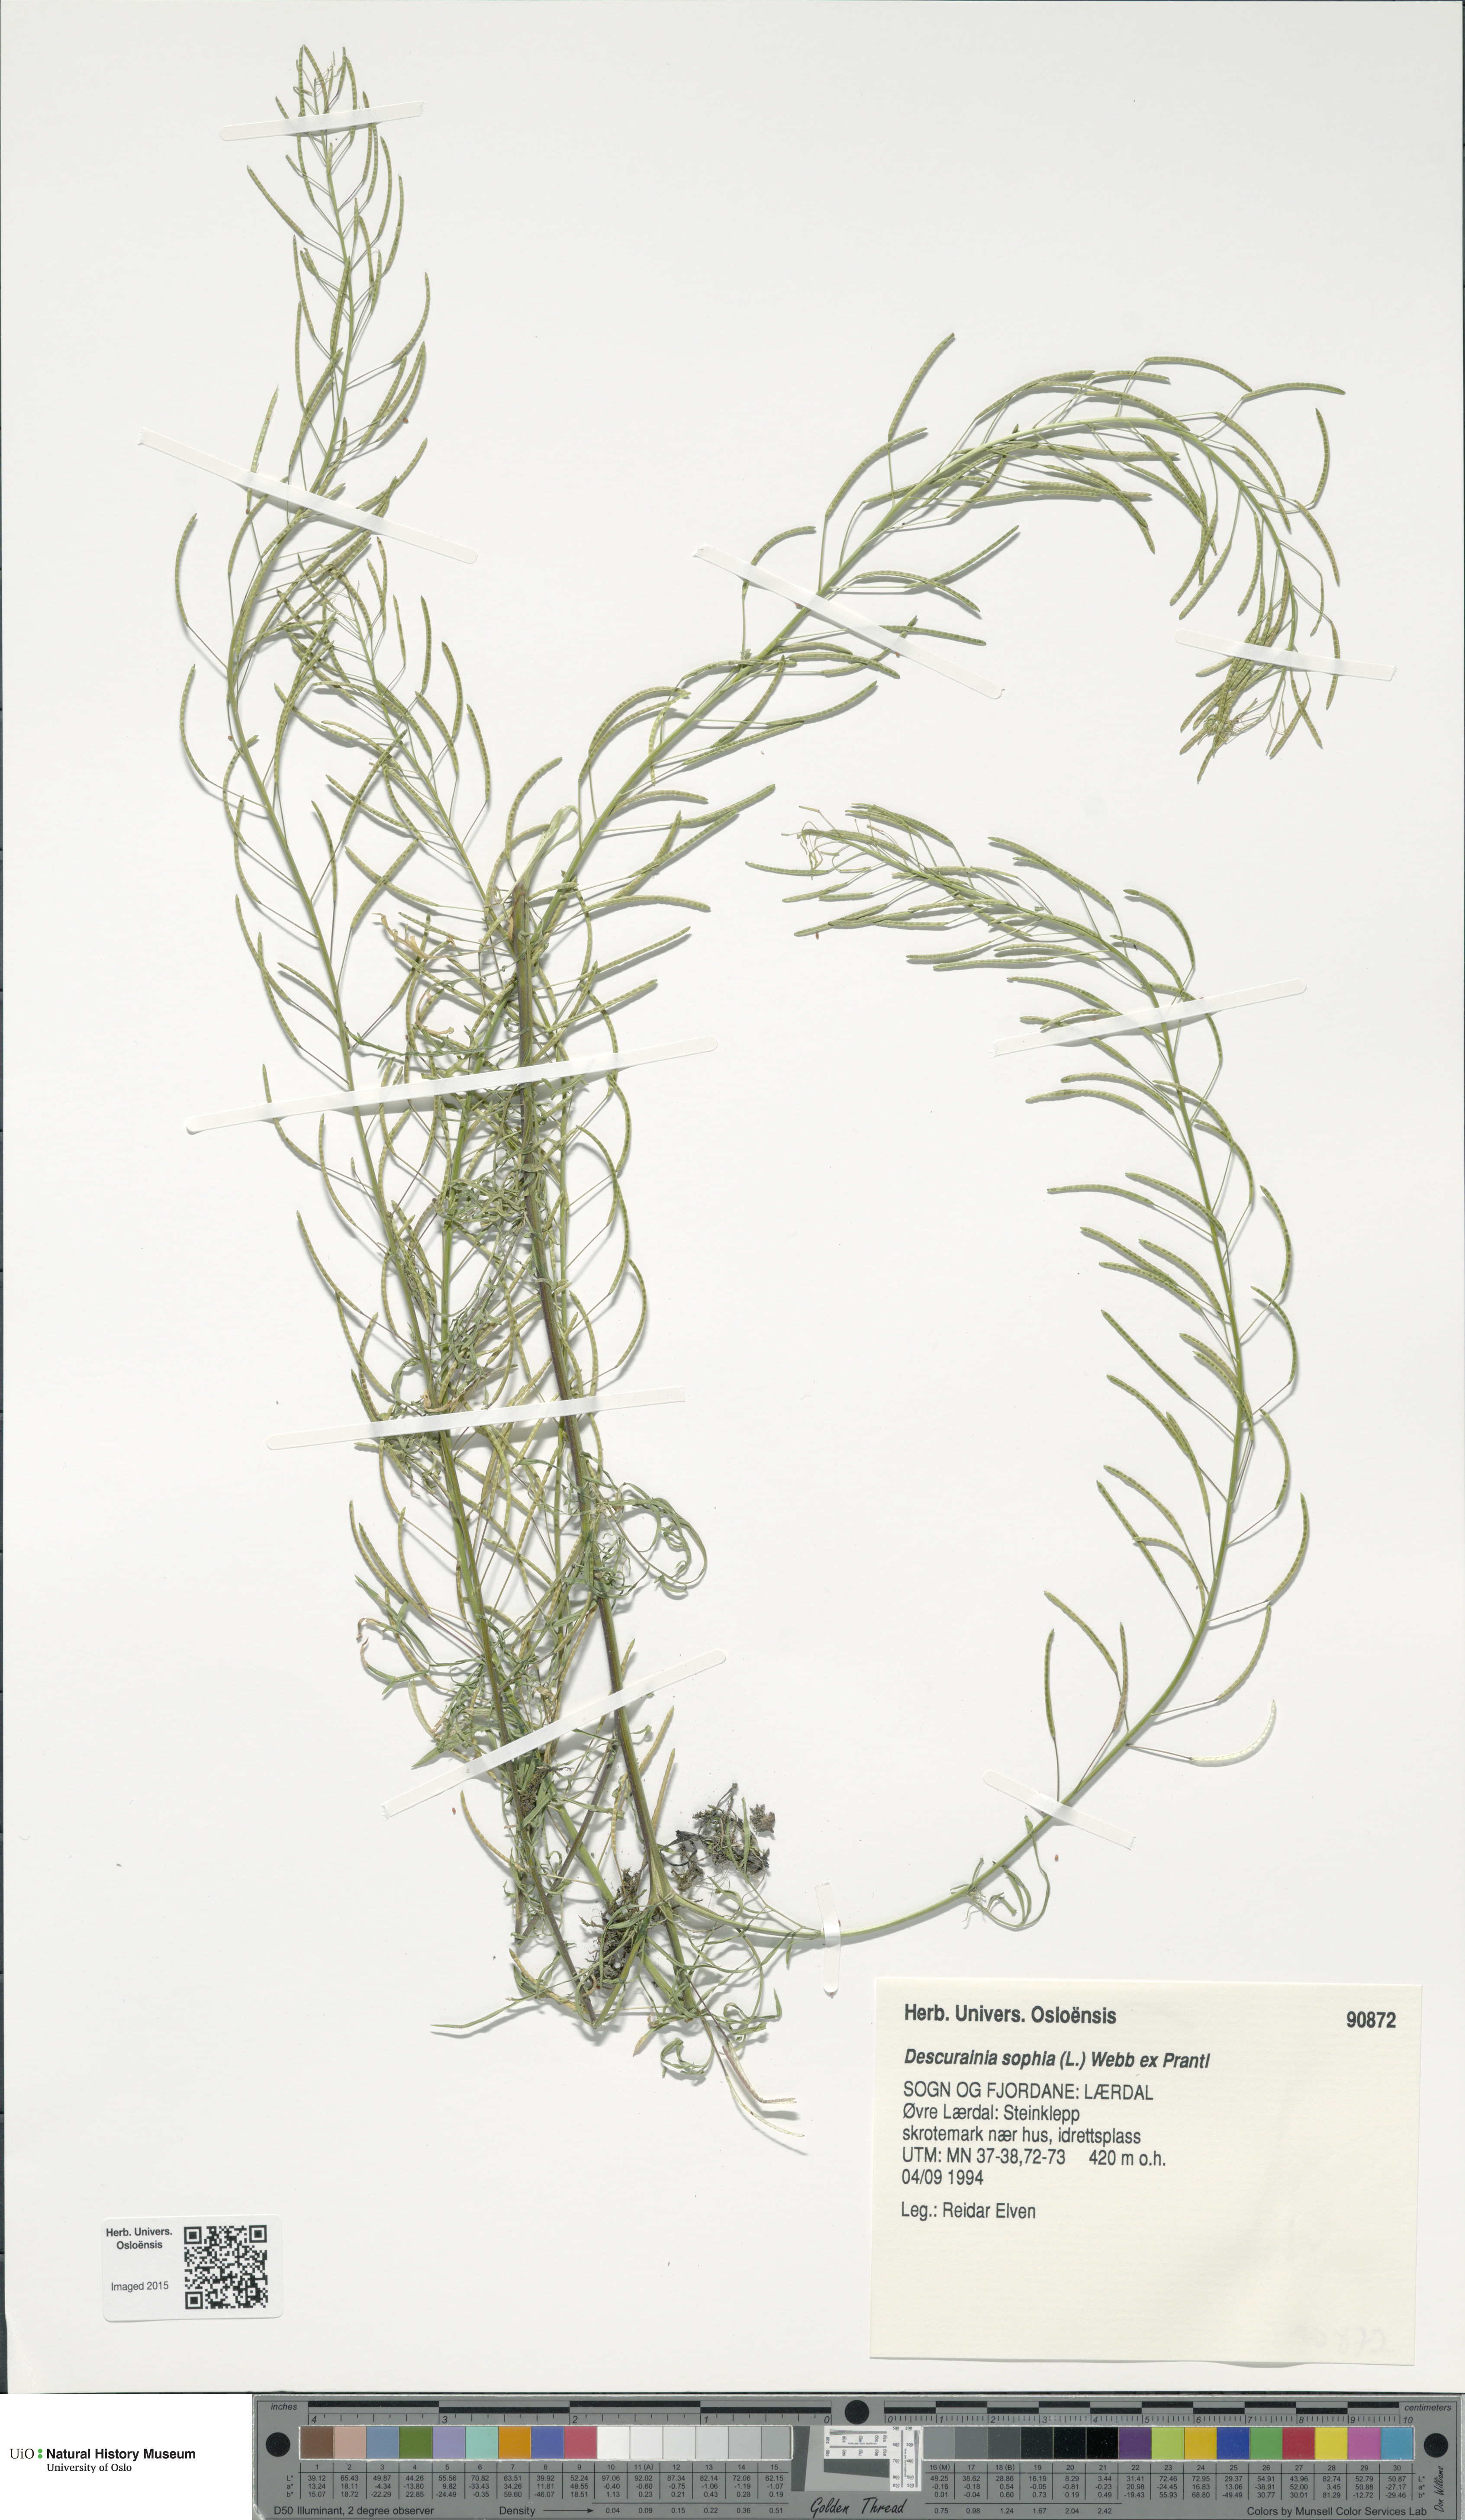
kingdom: Plantae
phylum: Tracheophyta
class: Magnoliopsida
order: Brassicales
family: Brassicaceae
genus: Descurainia
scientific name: Descurainia sophia
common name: Flixweed
